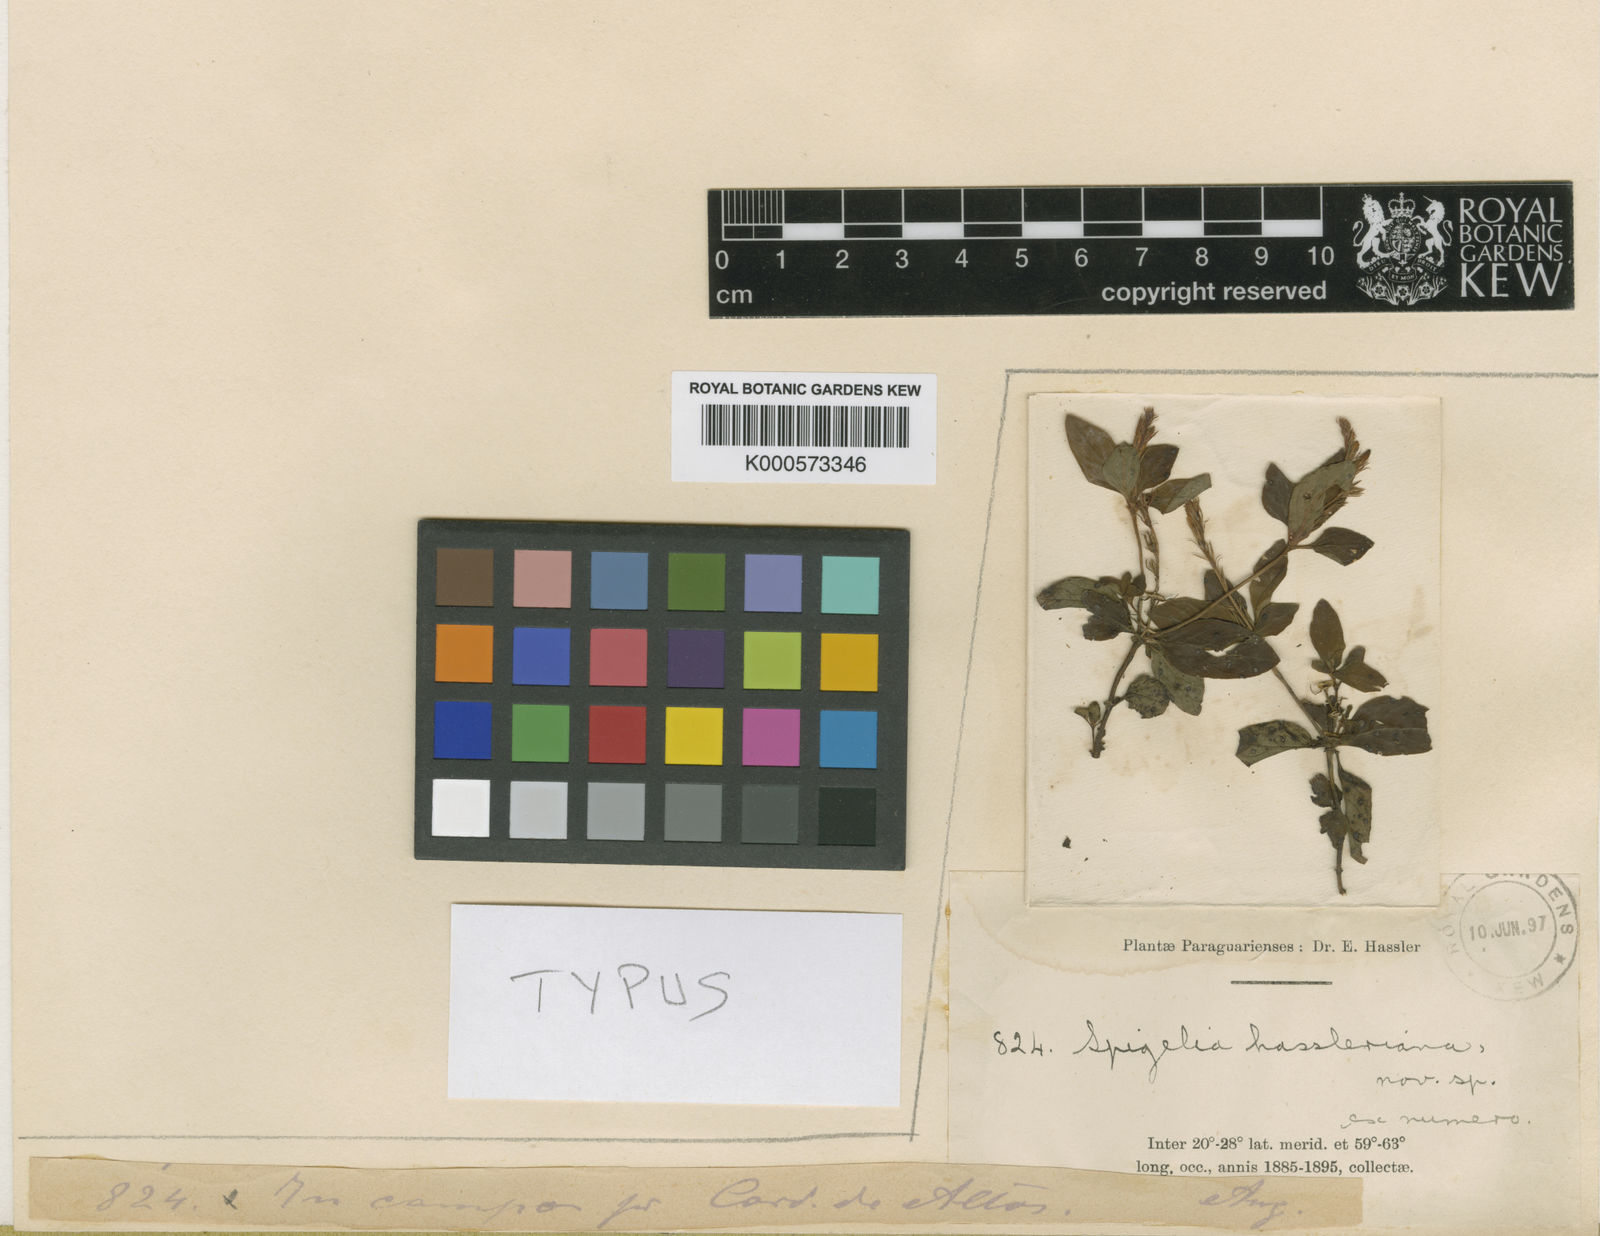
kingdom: Plantae
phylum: Tracheophyta
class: Magnoliopsida
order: Gentianales
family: Loganiaceae
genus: Spigelia
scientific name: Spigelia humboldtiana
